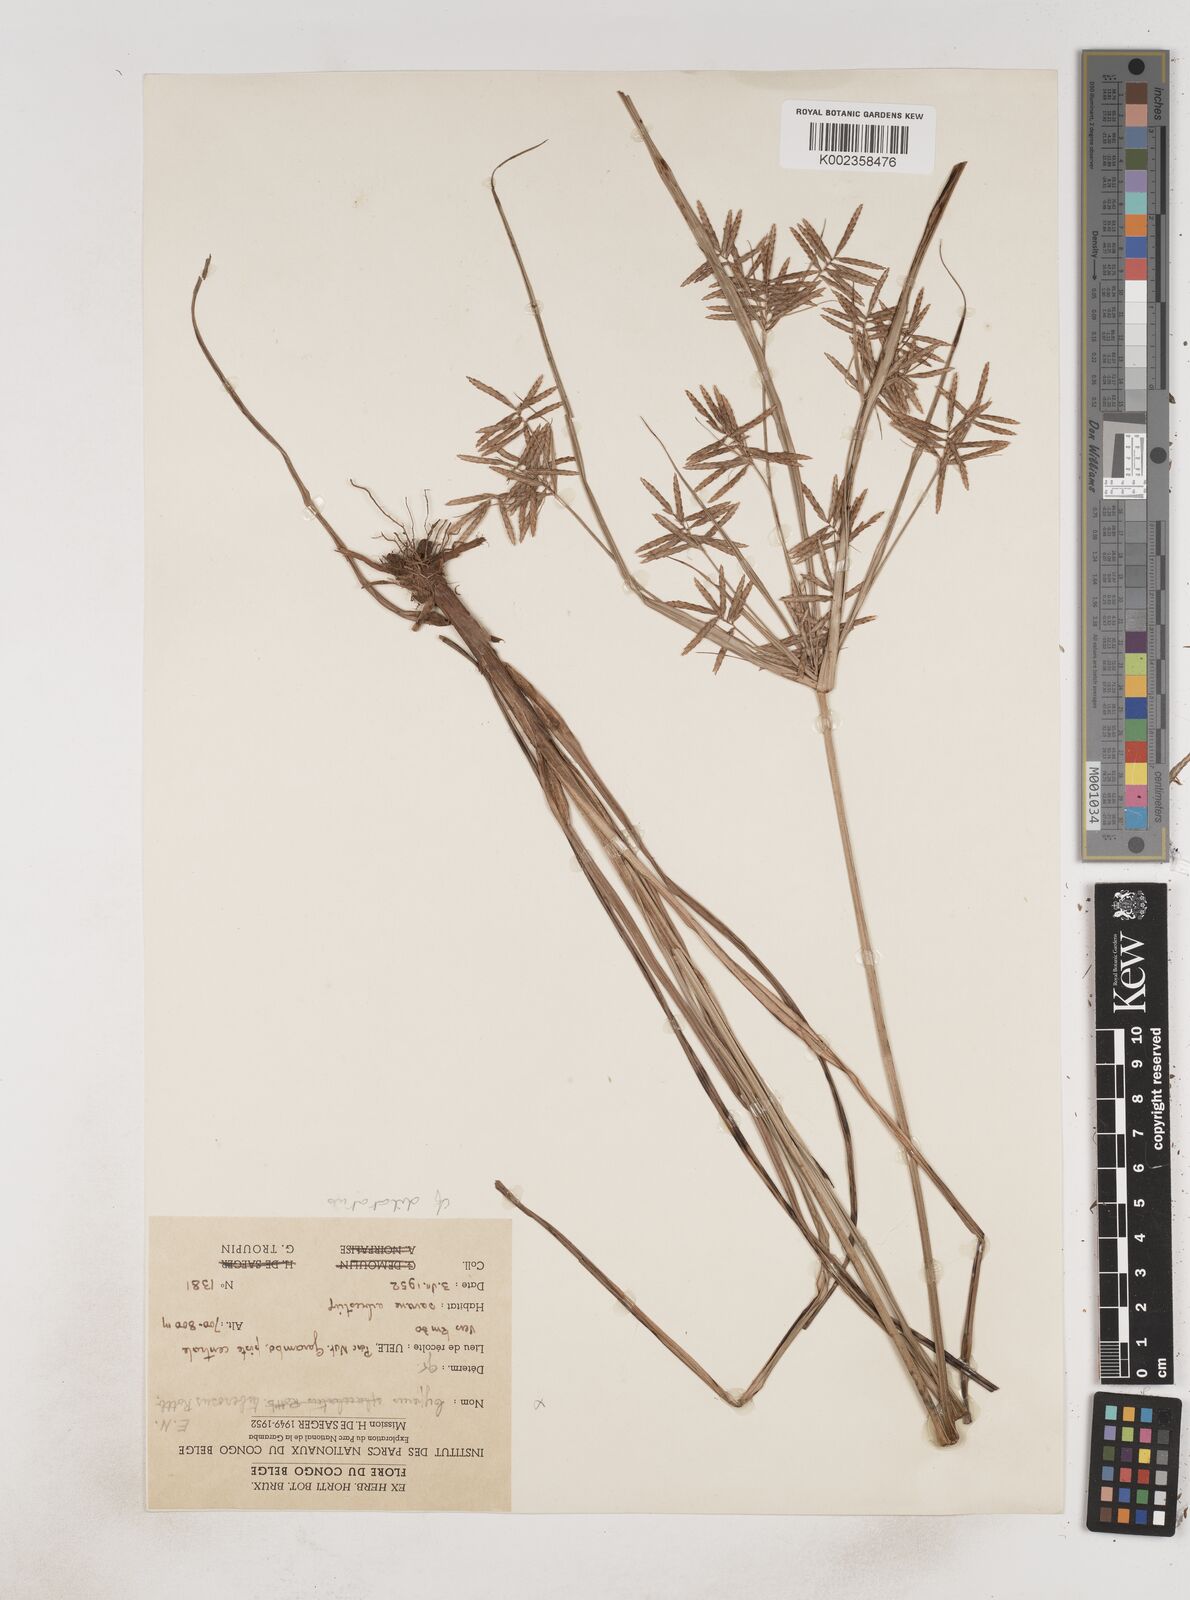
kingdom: Plantae
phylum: Tracheophyta
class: Liliopsida
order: Poales
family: Cyperaceae
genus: Cyperus
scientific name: Cyperus dilatatus
